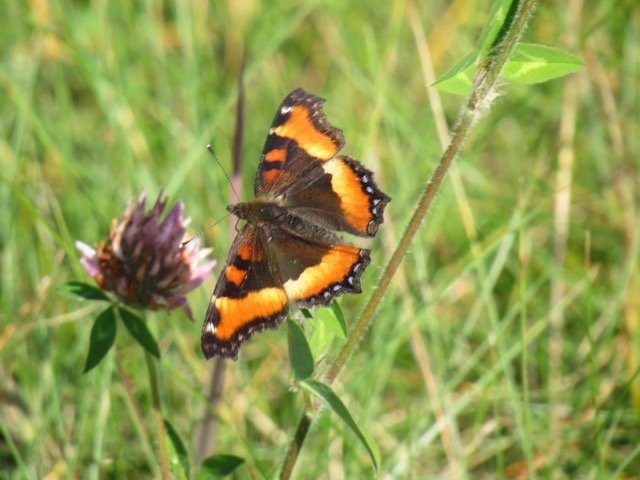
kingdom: Animalia
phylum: Arthropoda
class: Insecta
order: Lepidoptera
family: Nymphalidae
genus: Aglais
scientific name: Aglais milberti
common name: Milbert's Tortoiseshell
